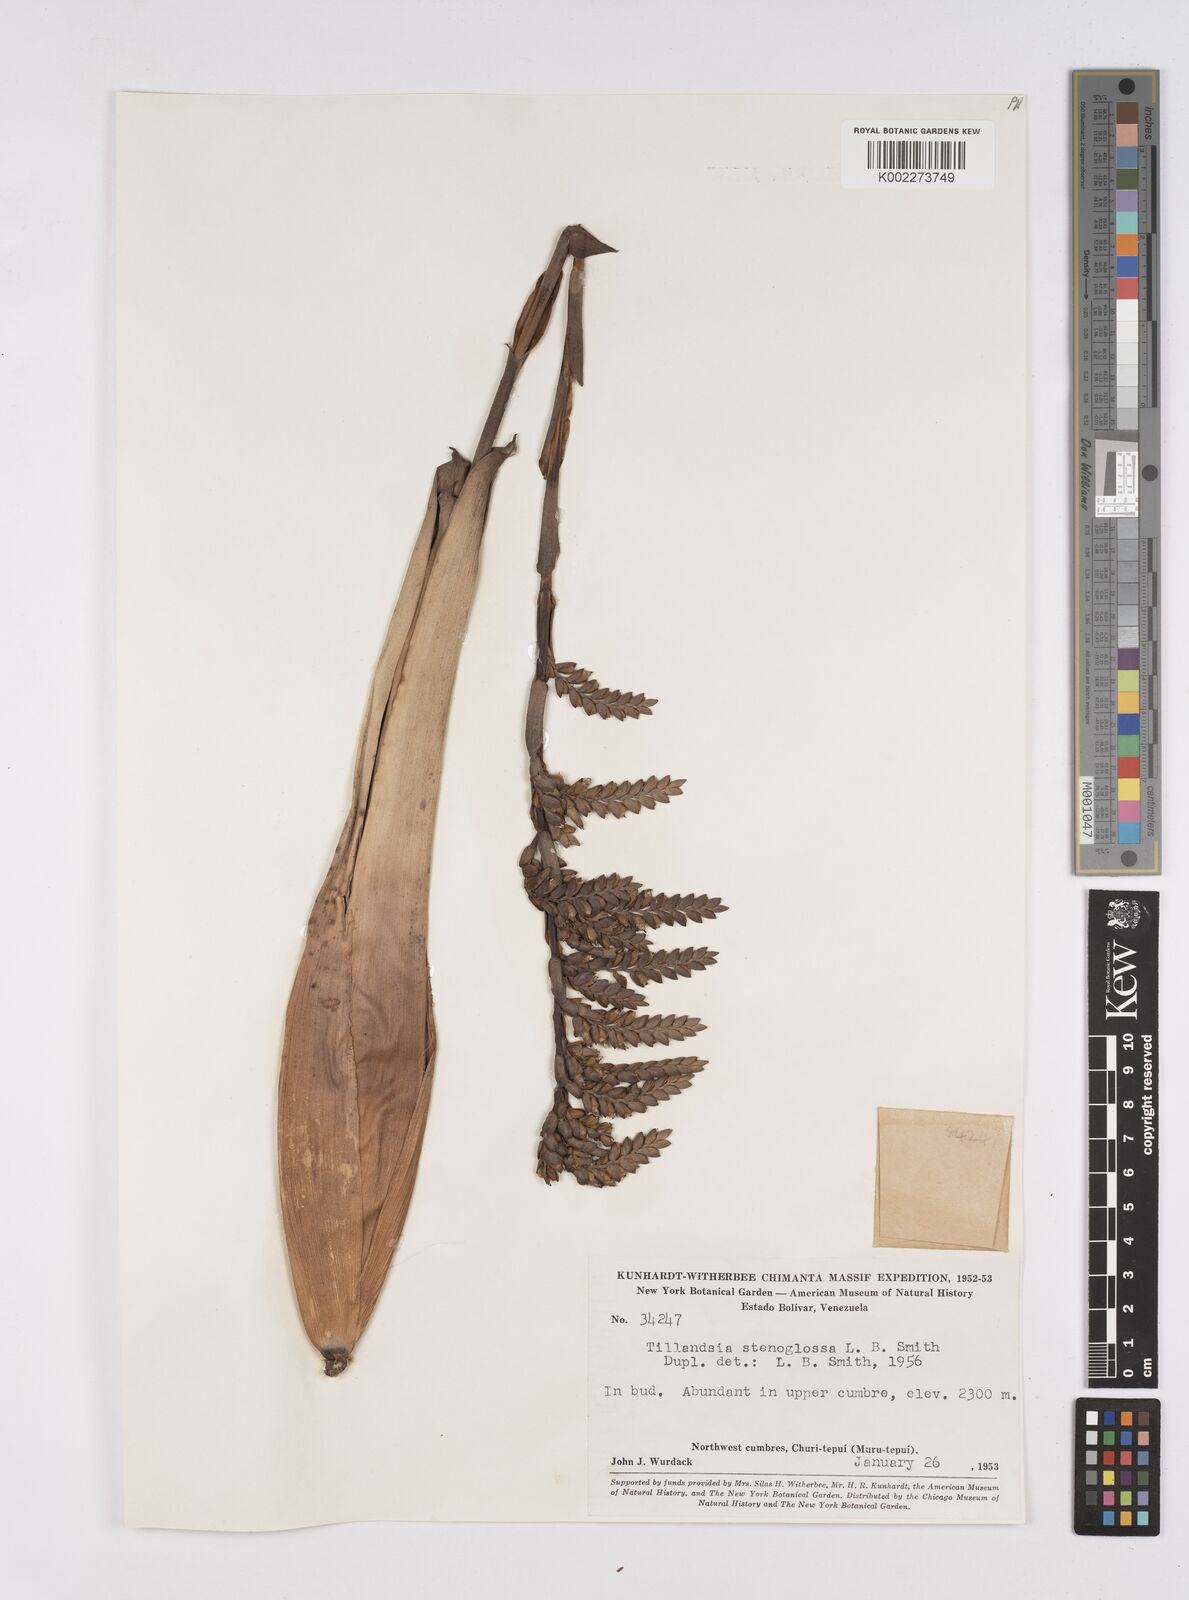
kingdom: Plantae
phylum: Tracheophyta
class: Liliopsida
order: Poales
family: Bromeliaceae
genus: Racinaea
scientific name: Racinaea spiculosa
